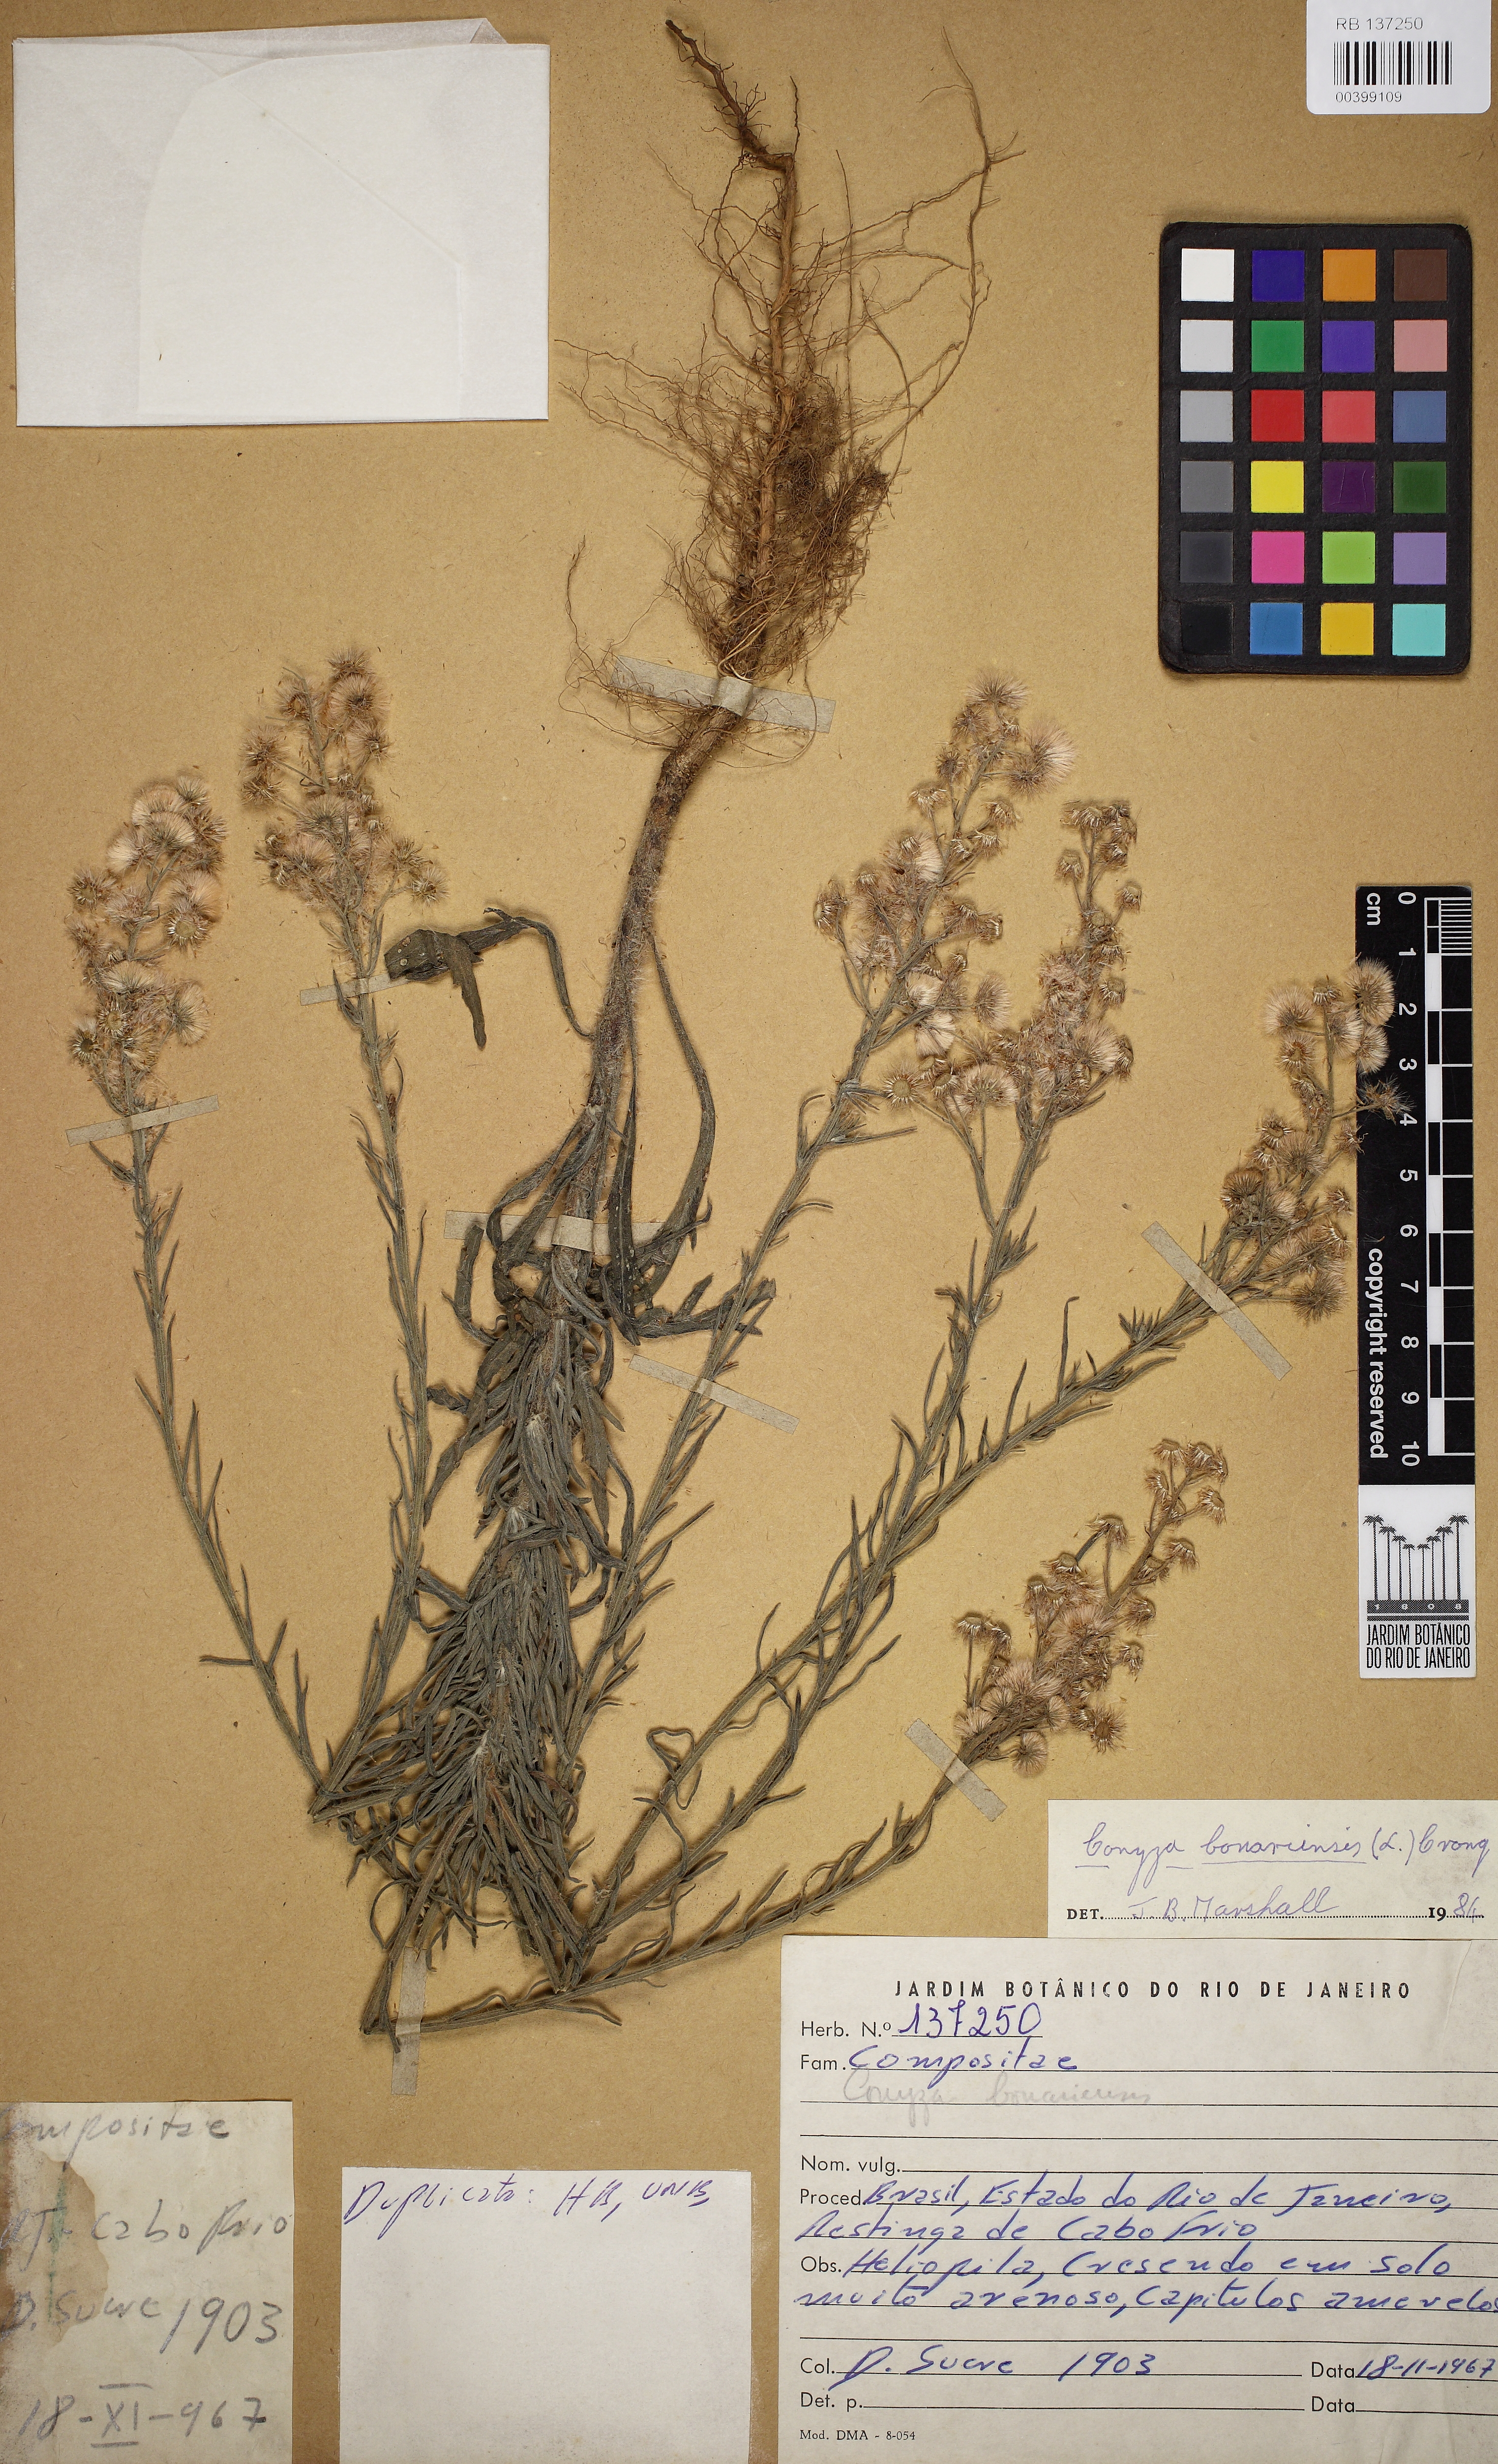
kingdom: Plantae
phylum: Tracheophyta
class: Magnoliopsida
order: Asterales
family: Asteraceae
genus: Erigeron
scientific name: Erigeron bonariensis
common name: Argentine fleabane
